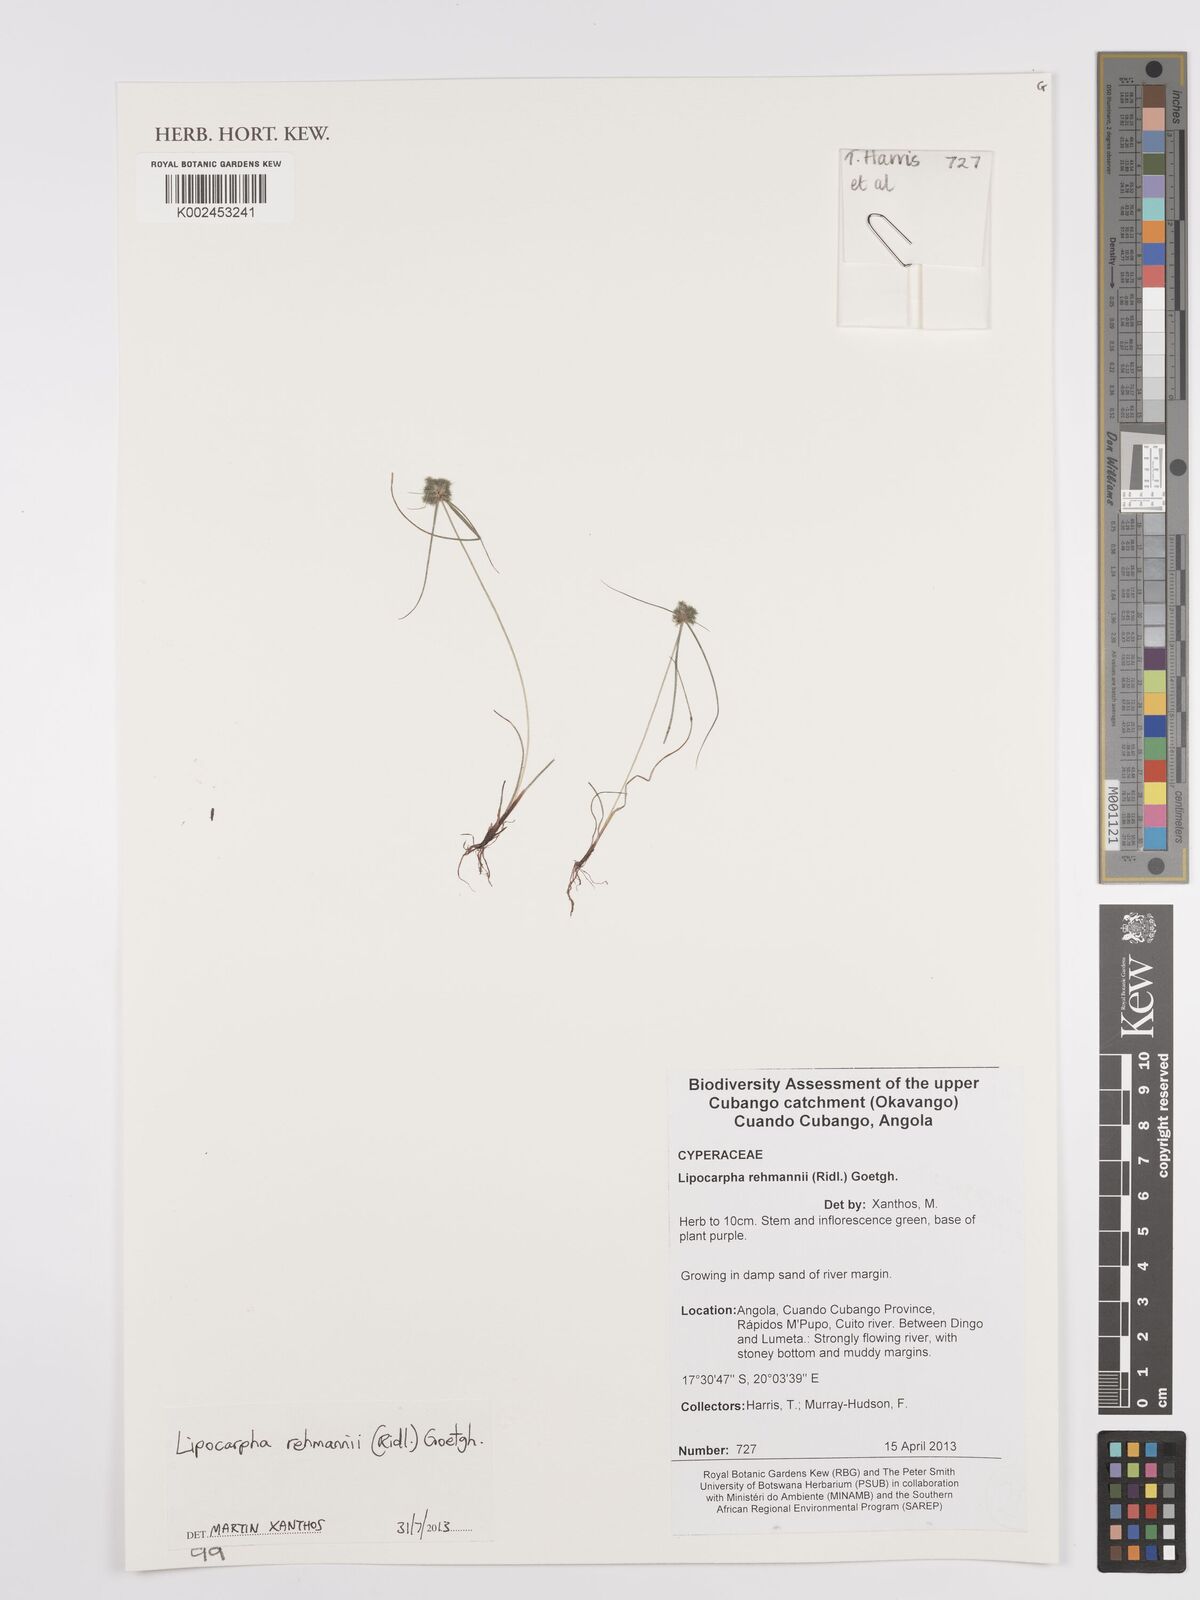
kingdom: Plantae
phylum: Tracheophyta
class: Liliopsida
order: Poales
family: Cyperaceae
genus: Cyperus
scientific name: Cyperus sanguinolentus
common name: Purpleglume flatsedge
